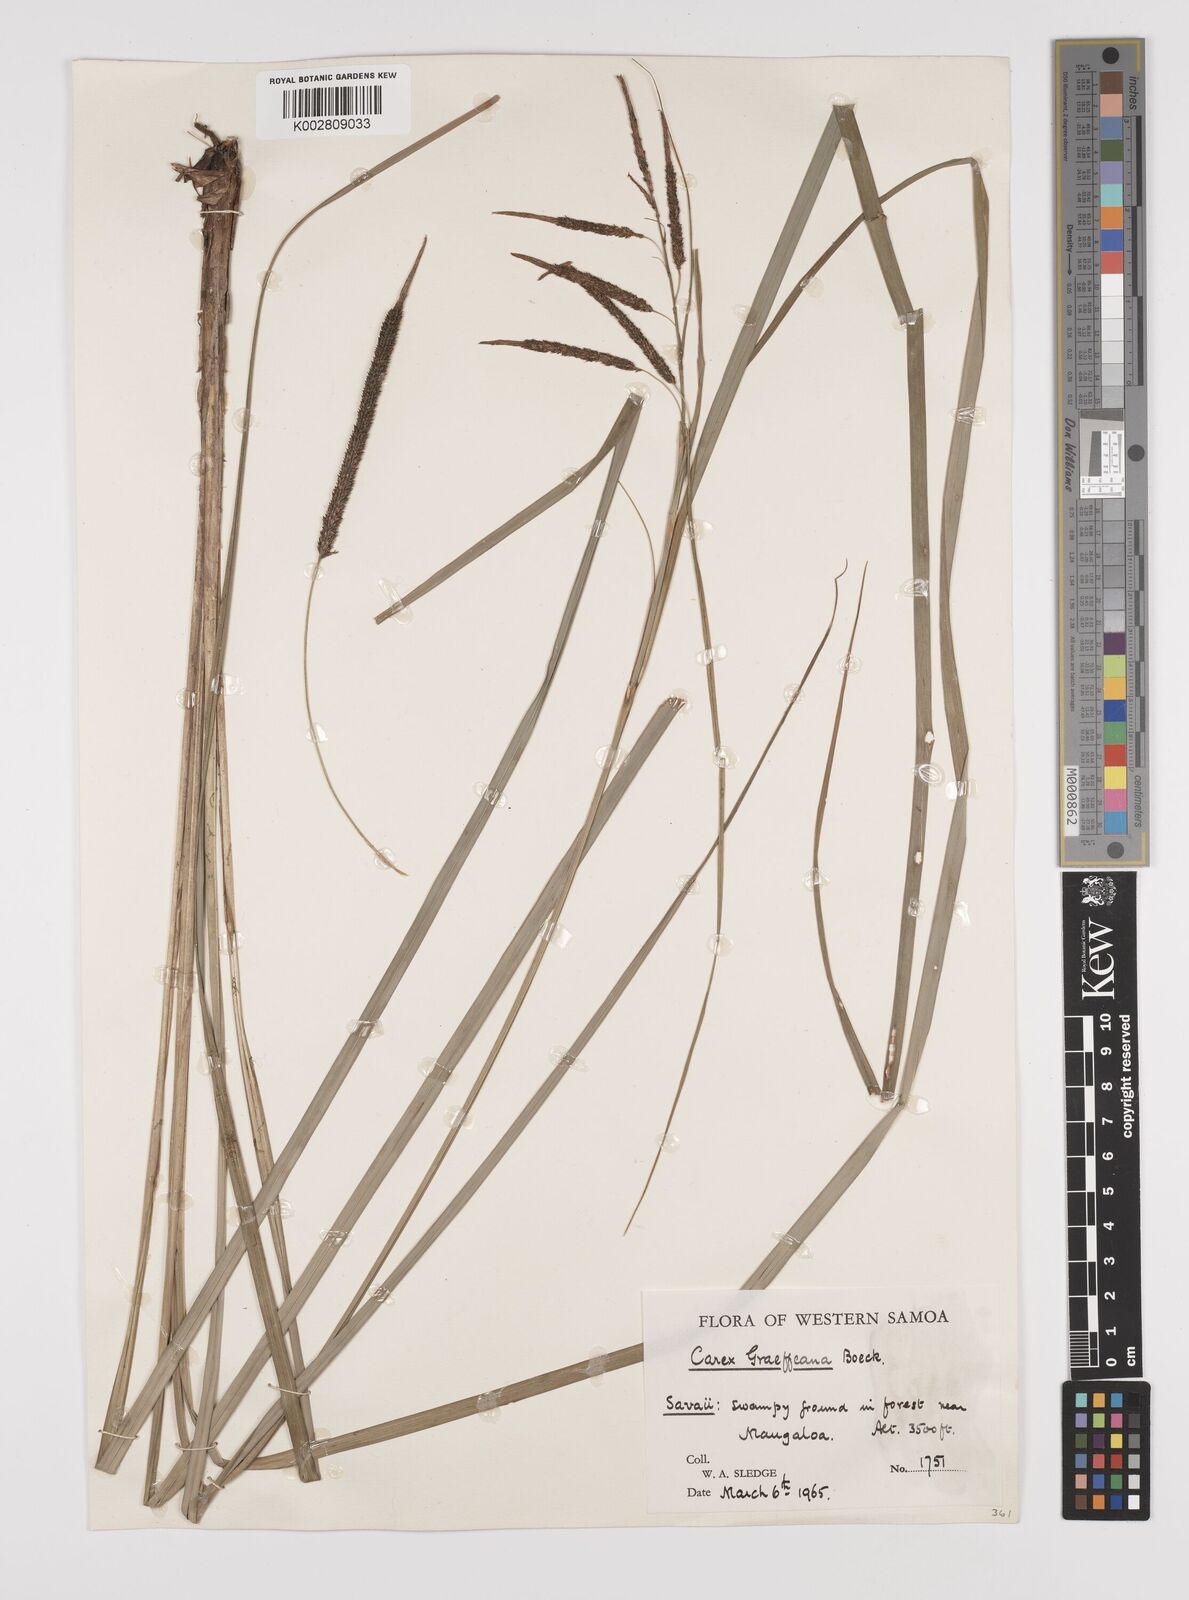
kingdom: Plantae
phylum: Tracheophyta
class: Liliopsida
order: Poales
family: Cyperaceae
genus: Carex
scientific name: Carex graeffeana
